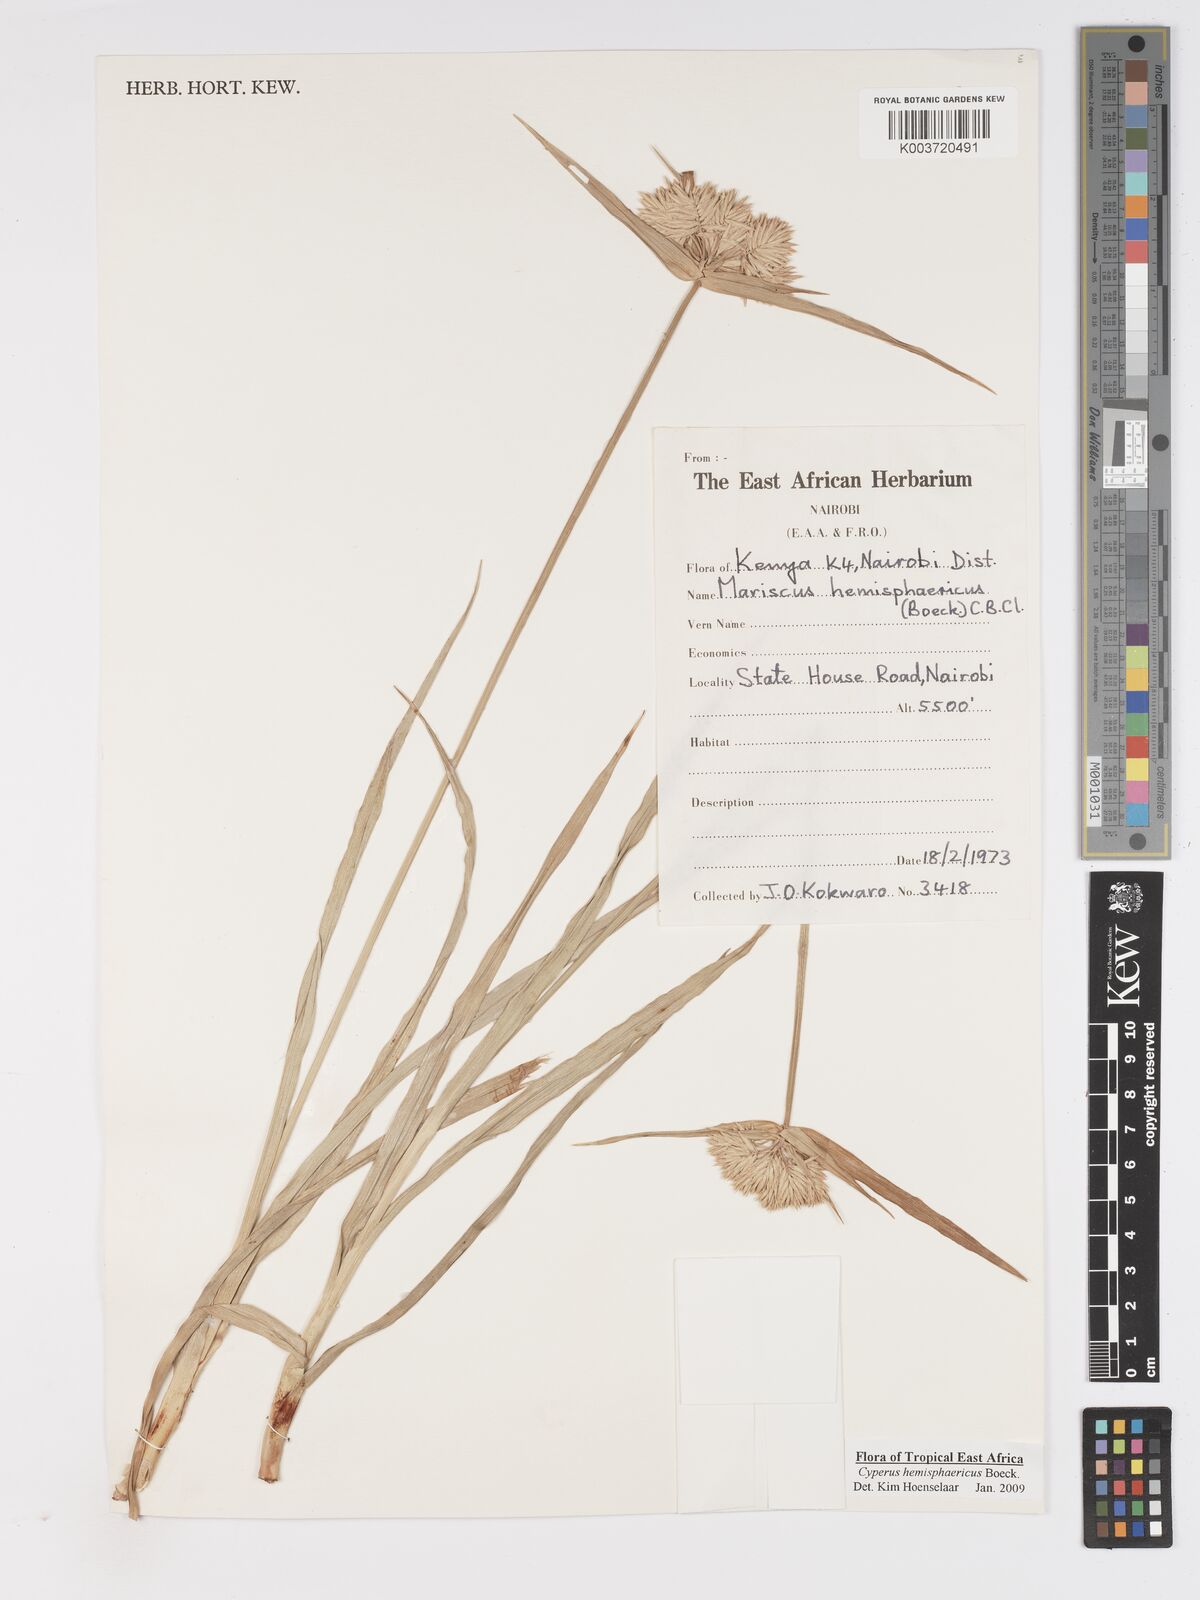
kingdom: Plantae
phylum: Tracheophyta
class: Liliopsida
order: Poales
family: Cyperaceae
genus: Cyperus
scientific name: Cyperus hemisphaericus
